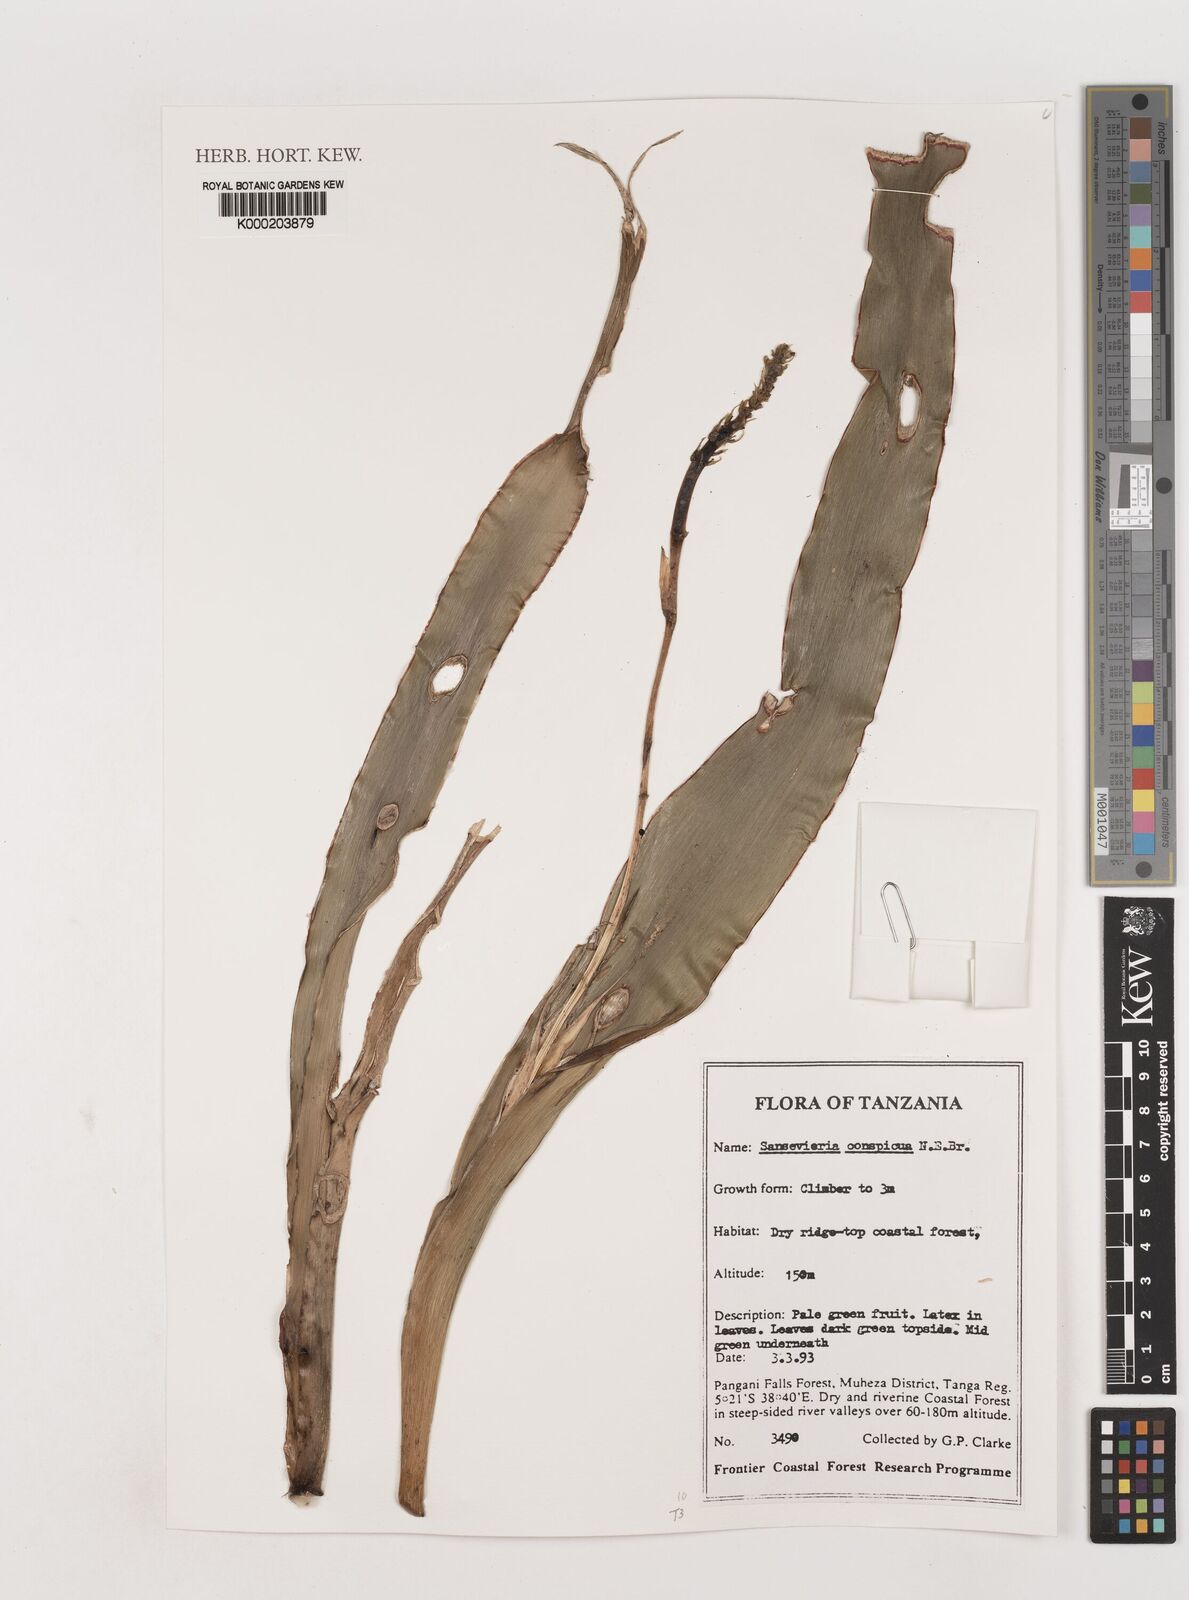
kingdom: Plantae
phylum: Tracheophyta
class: Liliopsida
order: Asparagales
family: Asparagaceae
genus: Dracaena
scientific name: Dracaena conspicua
